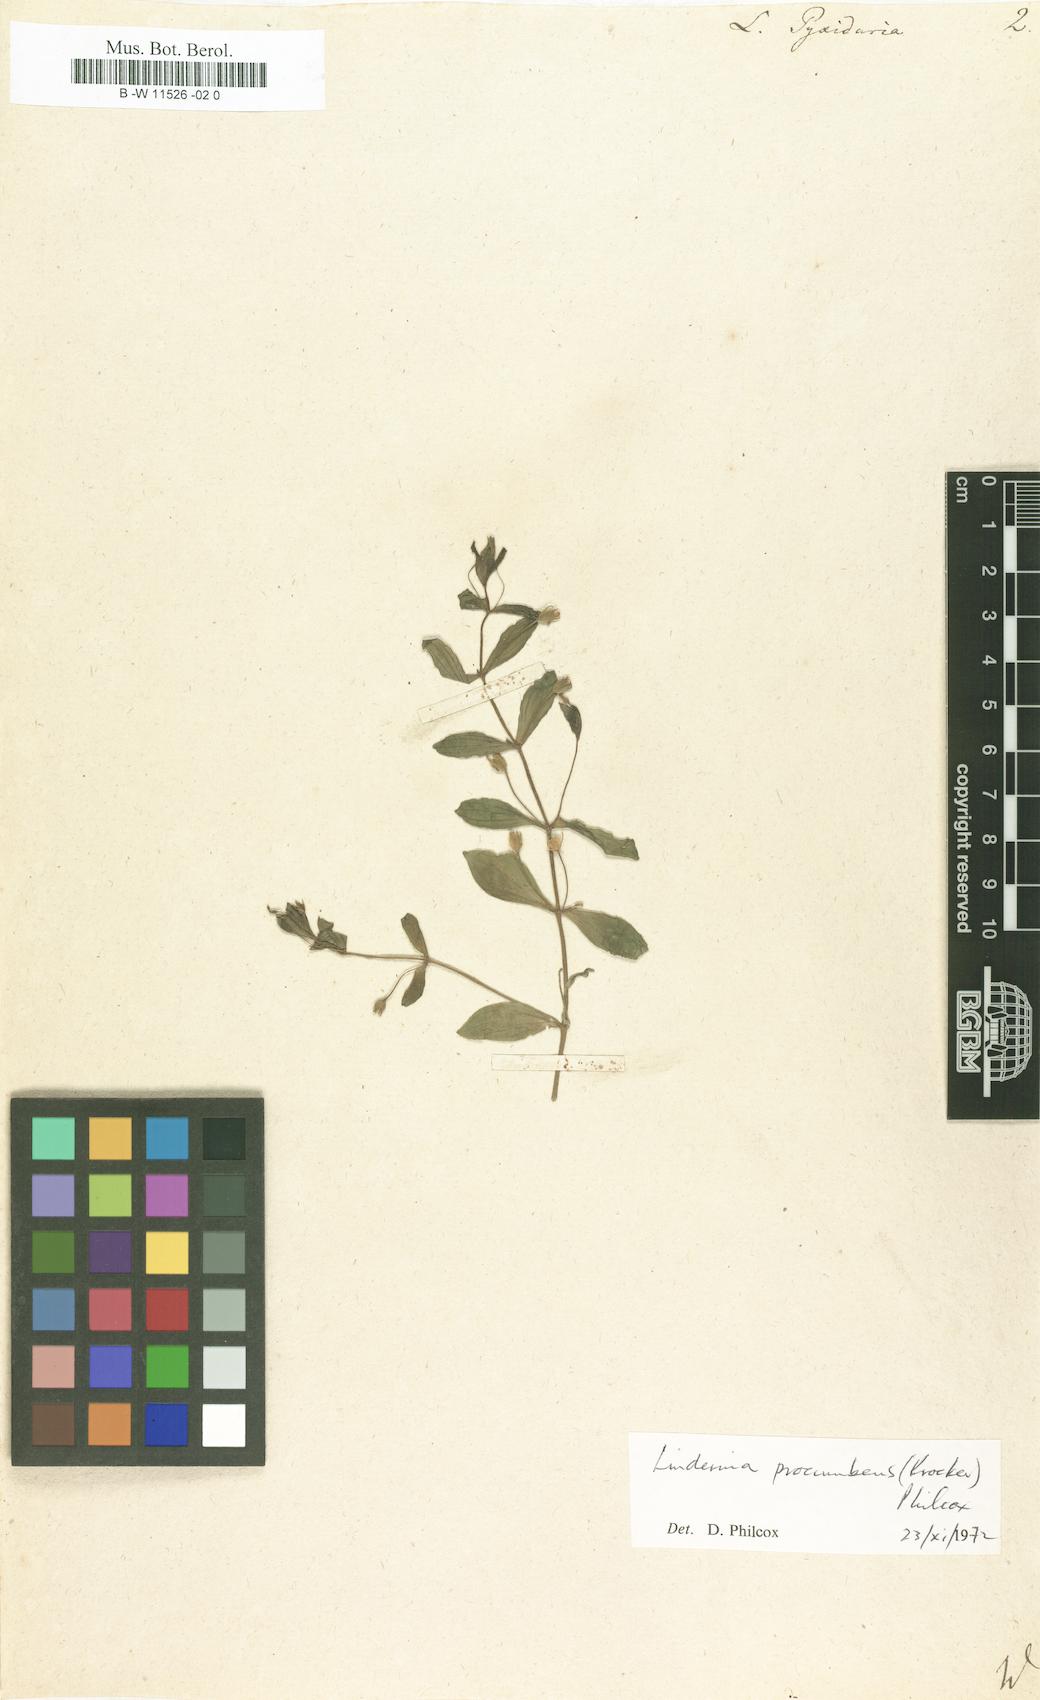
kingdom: Plantae
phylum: Tracheophyta
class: Magnoliopsida
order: Lamiales
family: Linderniaceae
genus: Lindernia
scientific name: Lindernia
